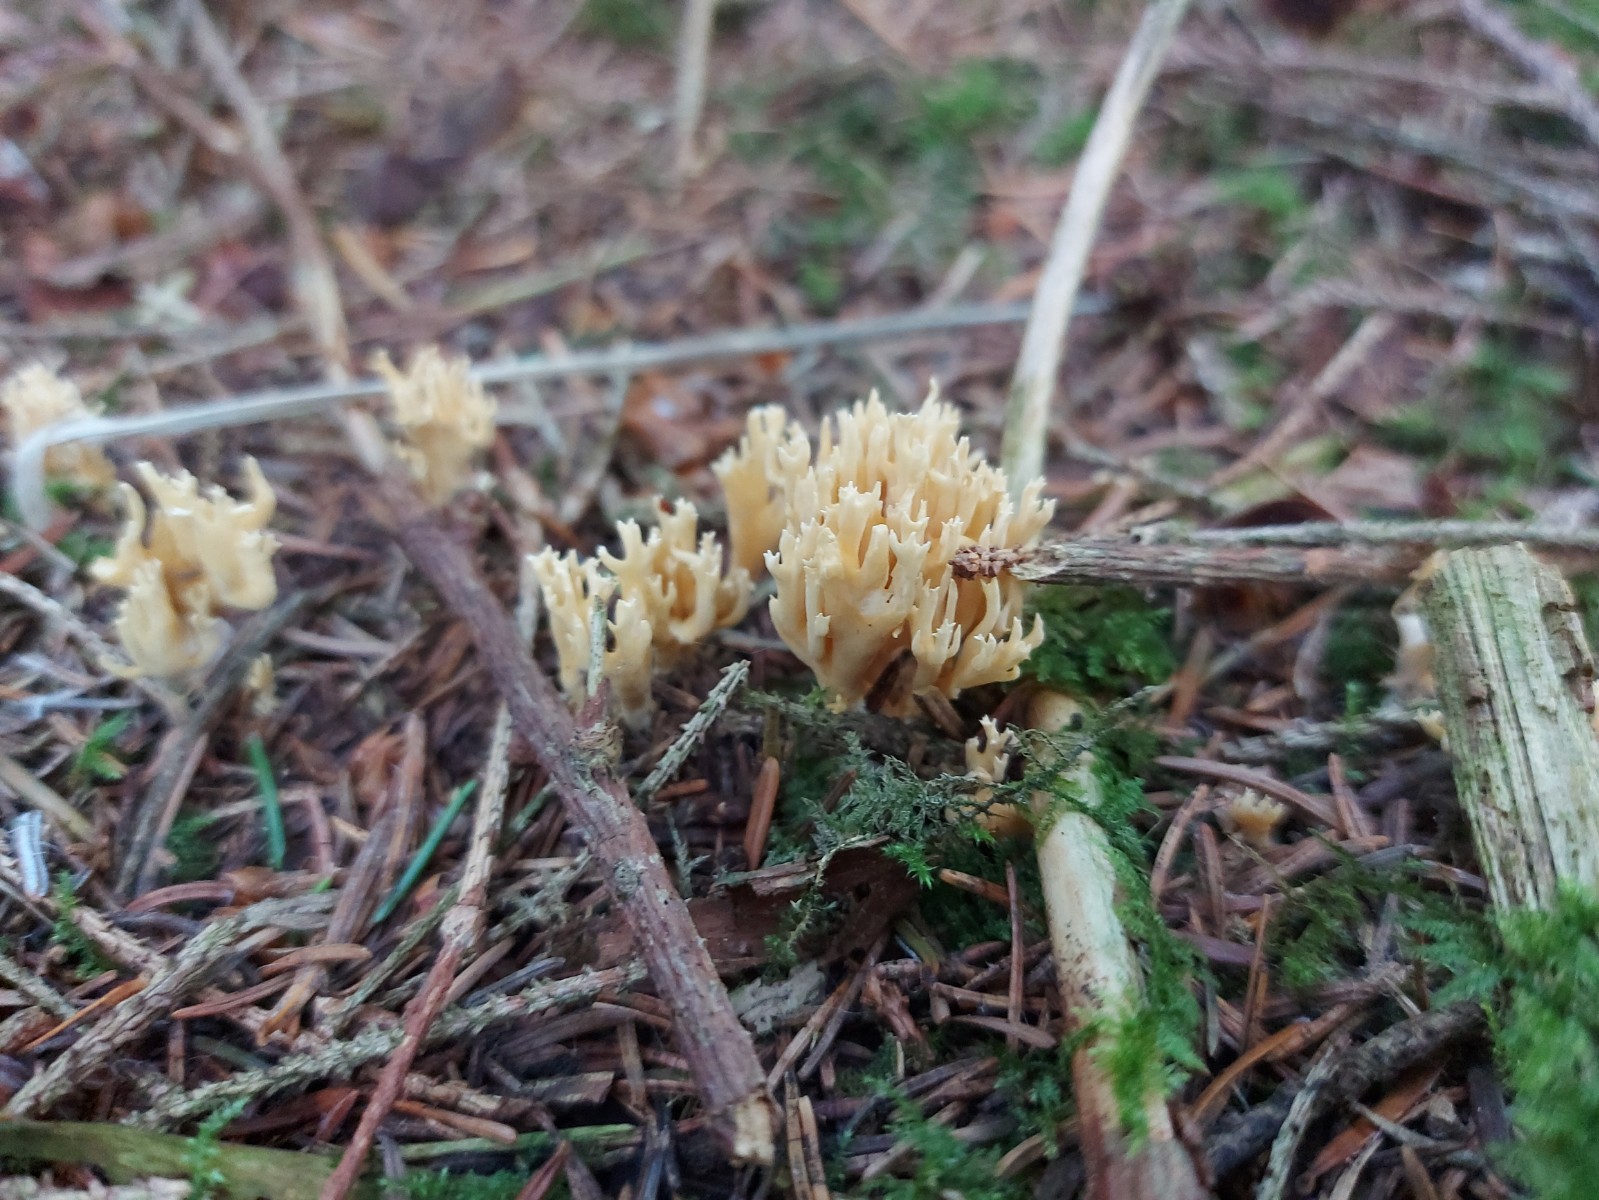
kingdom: Fungi
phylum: Basidiomycota
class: Agaricomycetes
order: Gomphales
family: Gomphaceae
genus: Phaeoclavulina
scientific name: Phaeoclavulina eumorpha
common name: gran-koralsvamp
